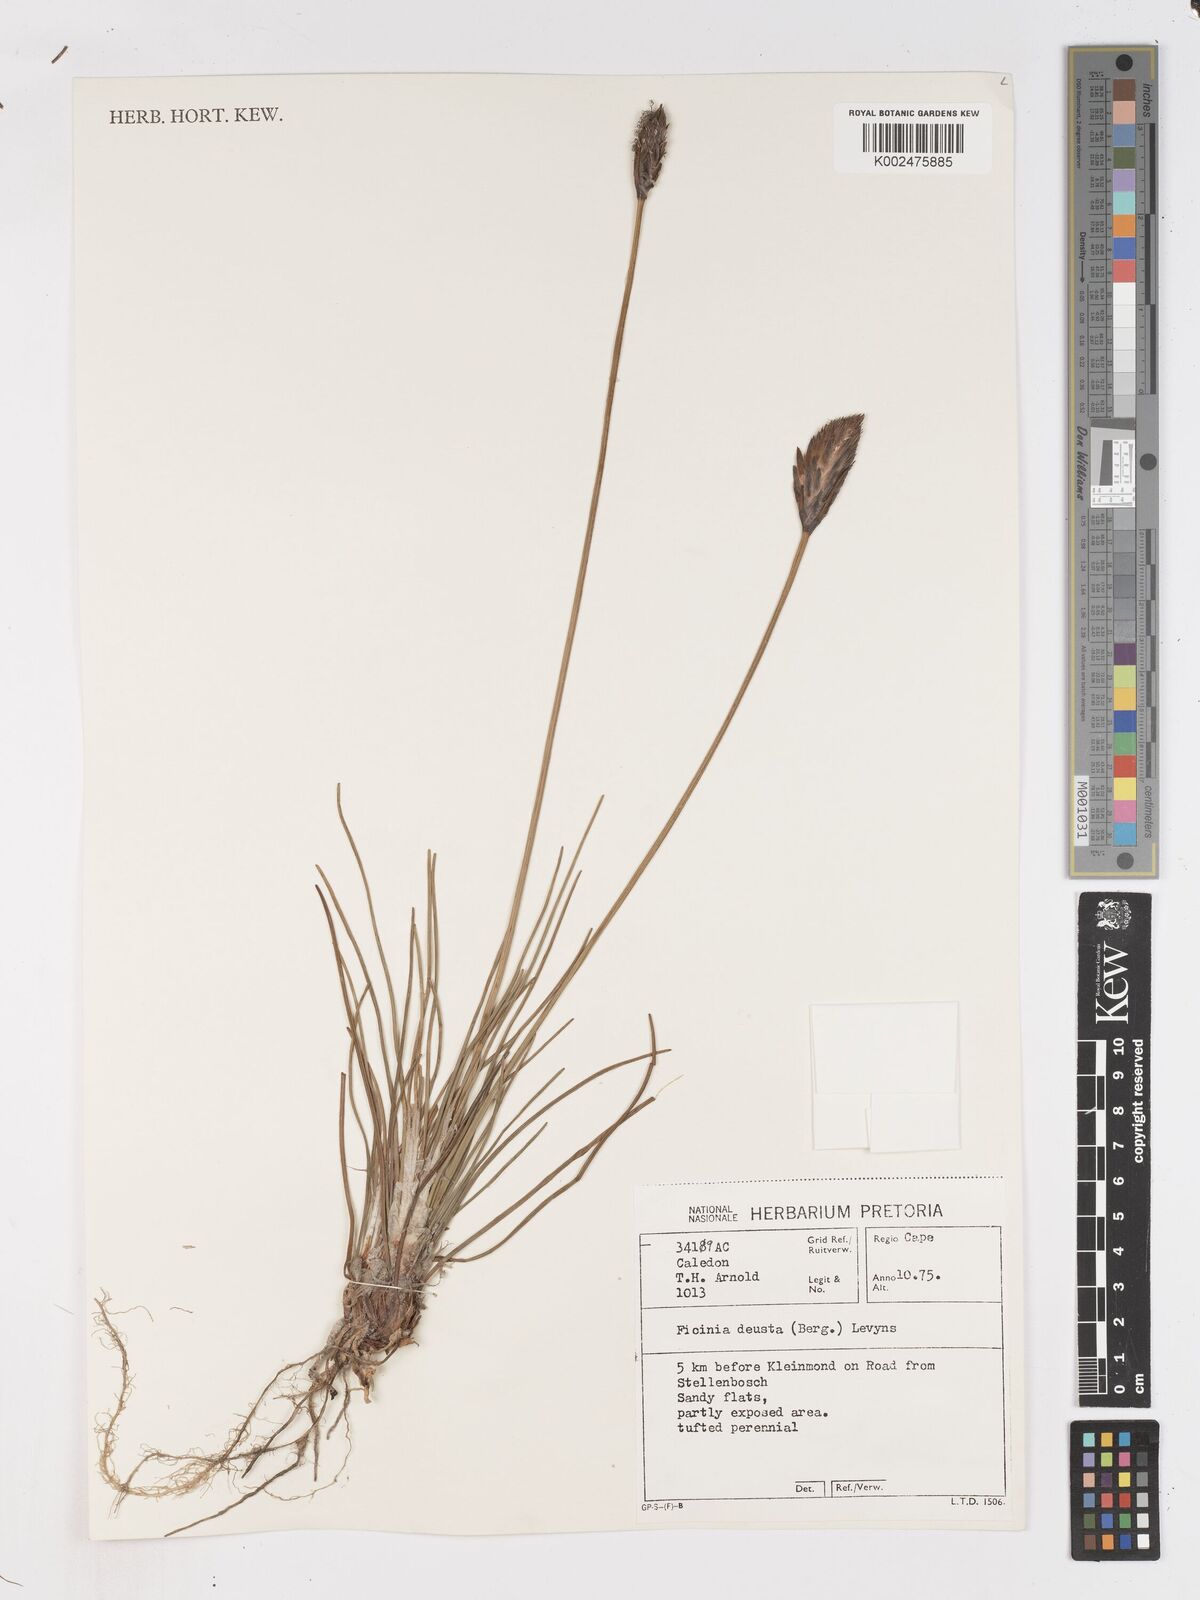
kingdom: Plantae
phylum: Tracheophyta
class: Liliopsida
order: Poales
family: Cyperaceae
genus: Ficinia
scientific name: Ficinia deusta
